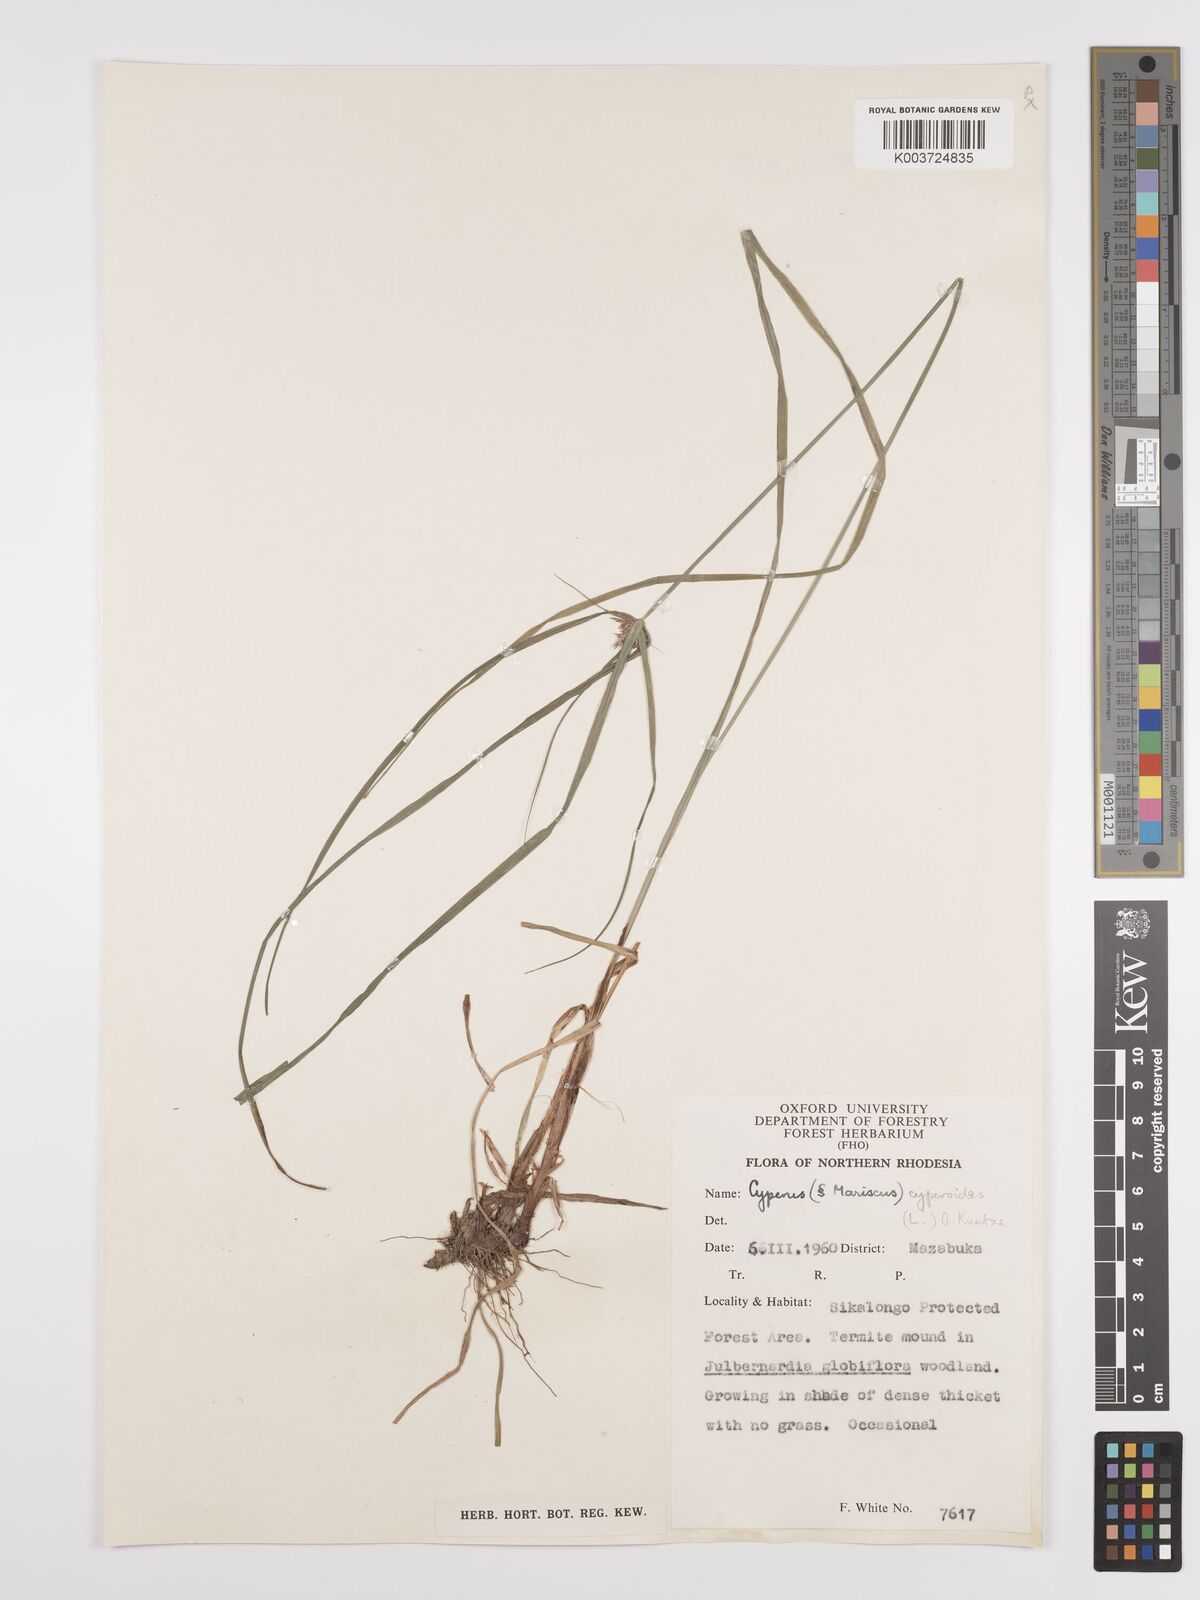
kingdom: Plantae
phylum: Tracheophyta
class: Liliopsida
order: Poales
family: Cyperaceae
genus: Cyperus
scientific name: Cyperus cyperoides
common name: Pacific island flat sedge
